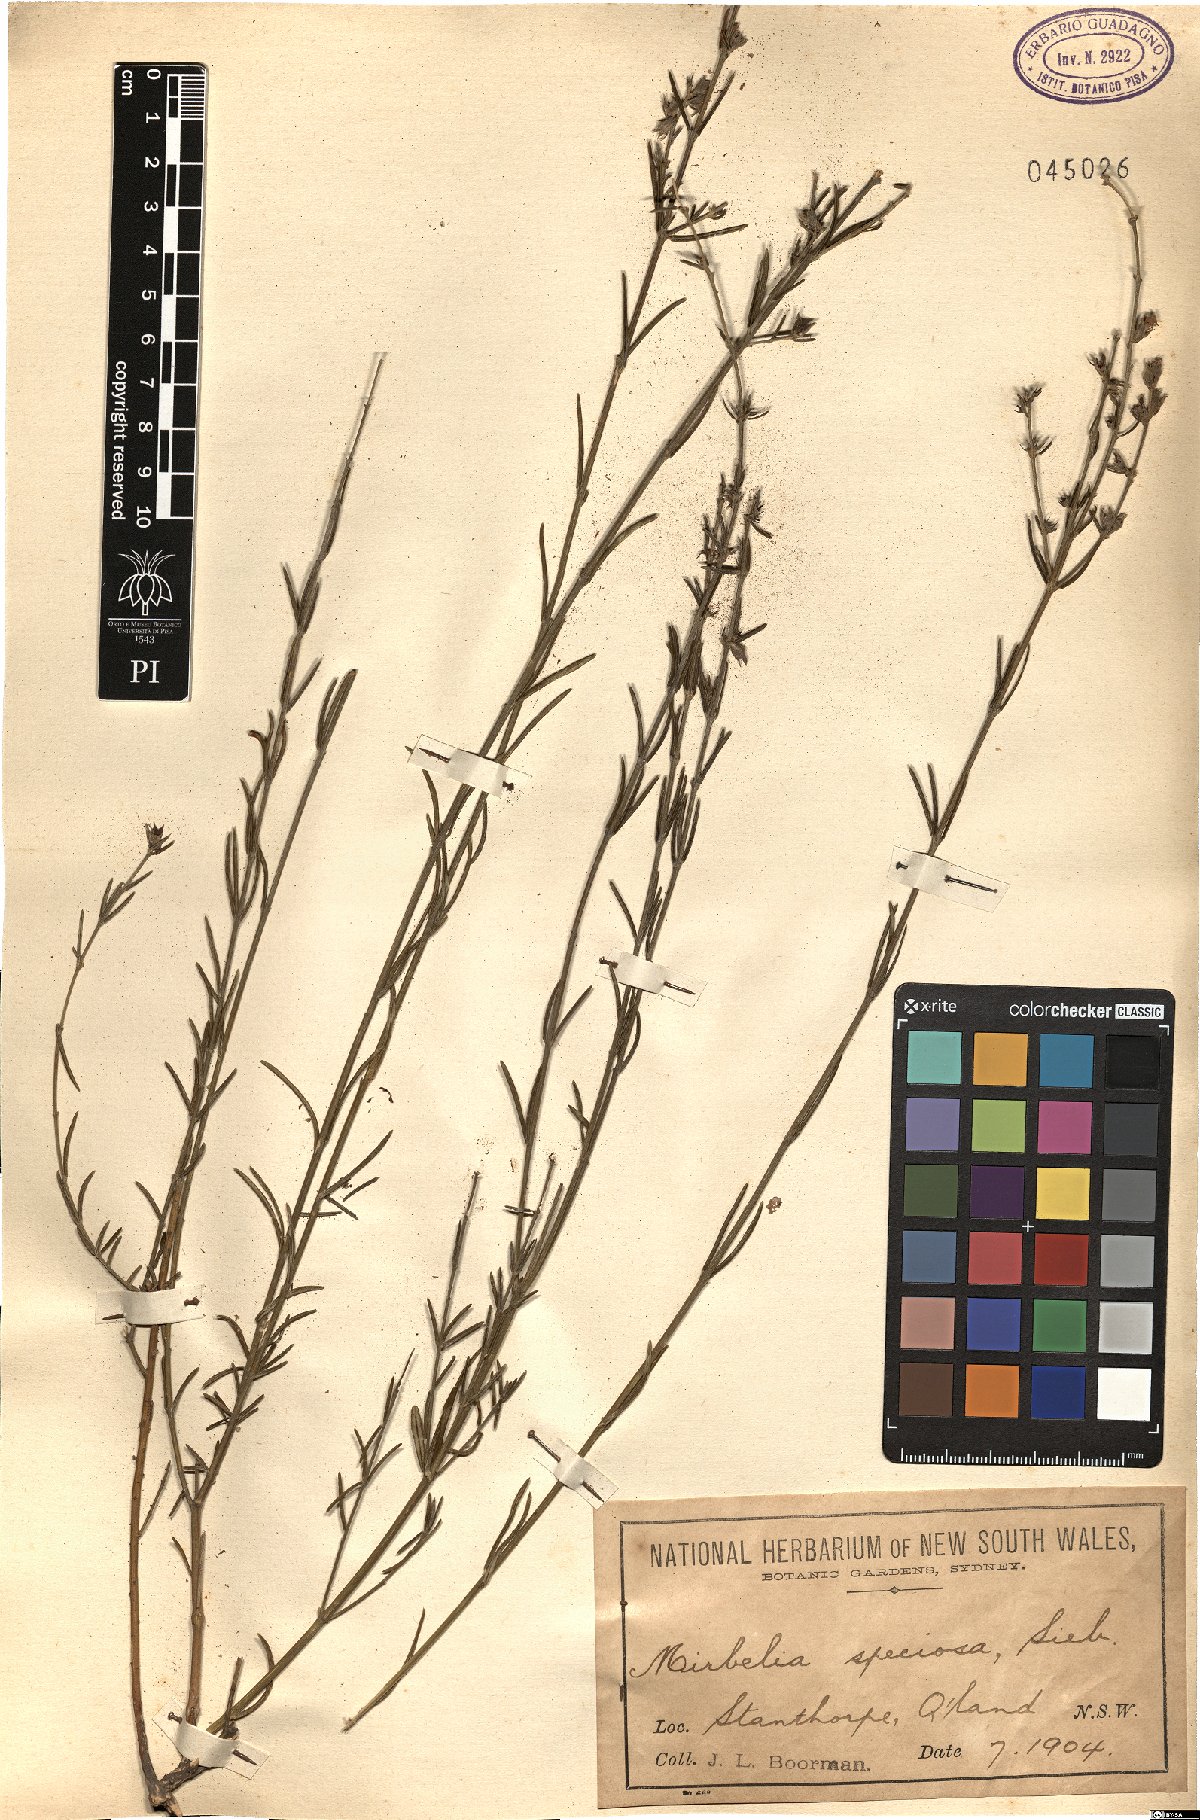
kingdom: Plantae
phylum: Tracheophyta
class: Magnoliopsida
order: Fabales
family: Fabaceae
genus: Mirbelia
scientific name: Mirbelia speciosa
